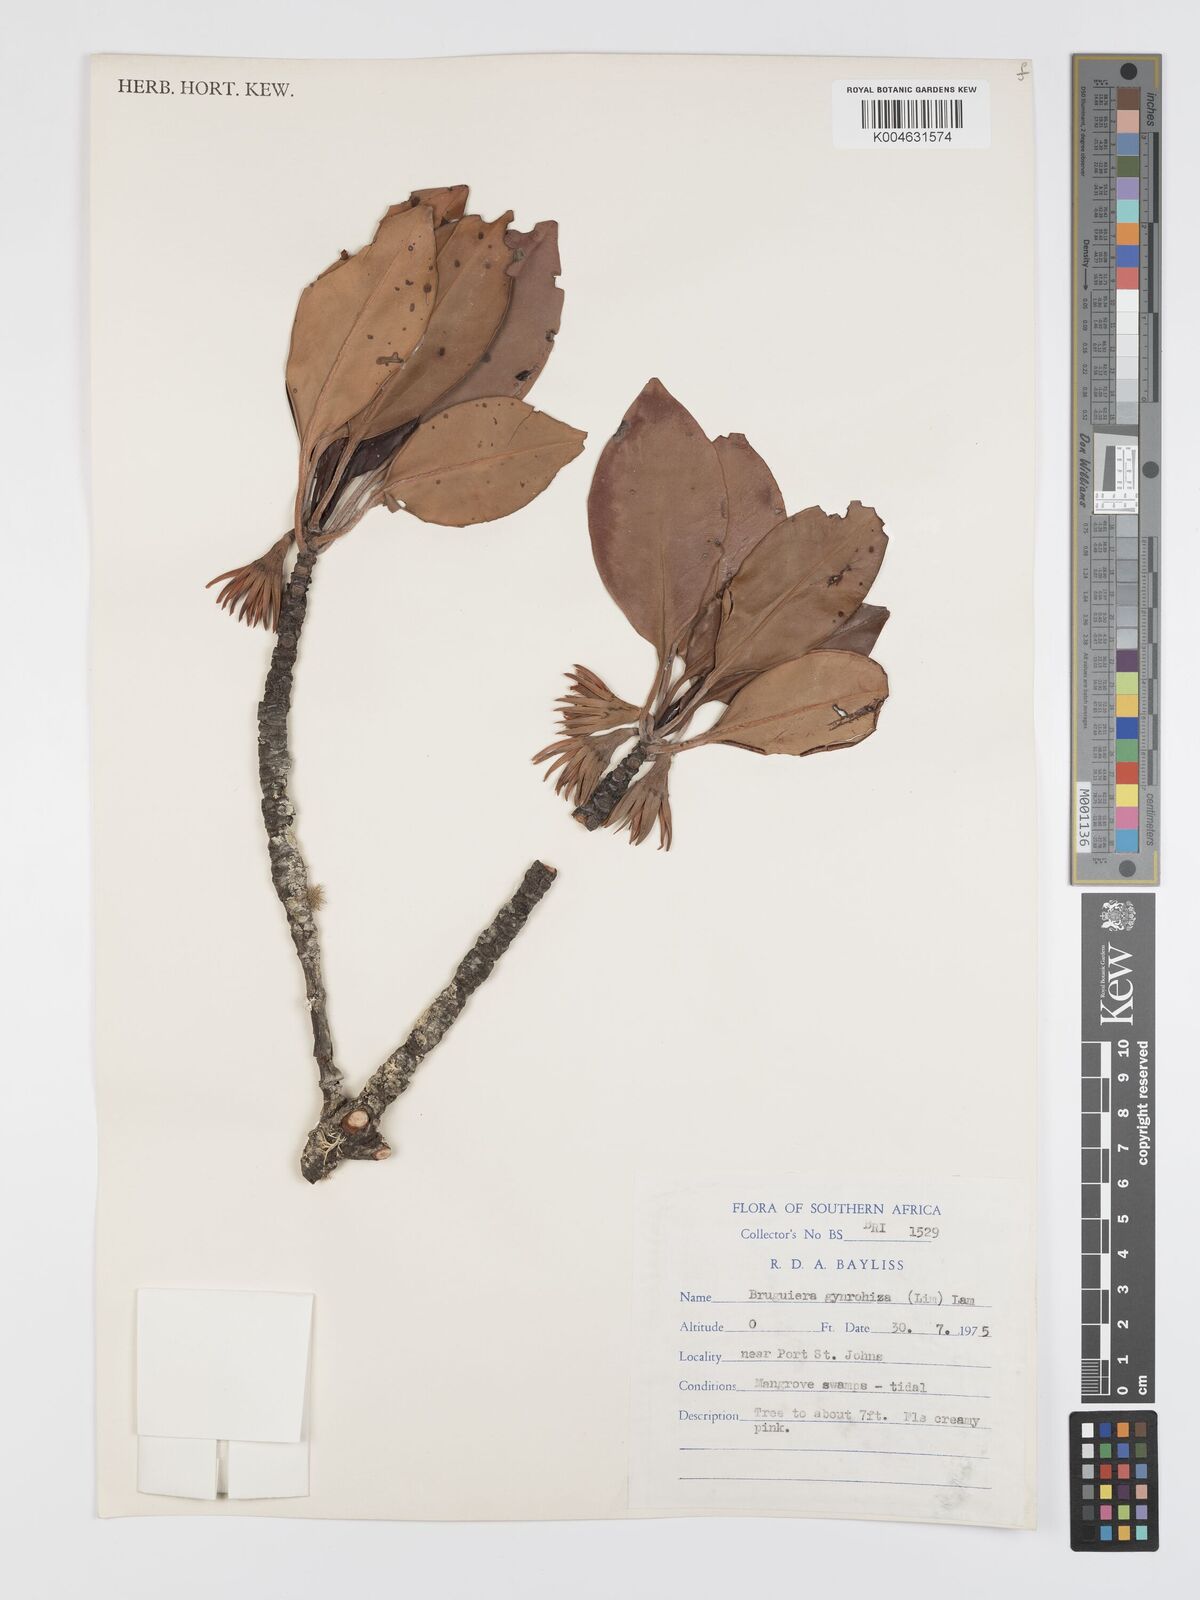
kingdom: Plantae
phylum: Tracheophyta
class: Magnoliopsida
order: Malpighiales
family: Rhizophoraceae
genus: Bruguiera
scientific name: Bruguiera gymnorhiza
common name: Oriental mangrove
